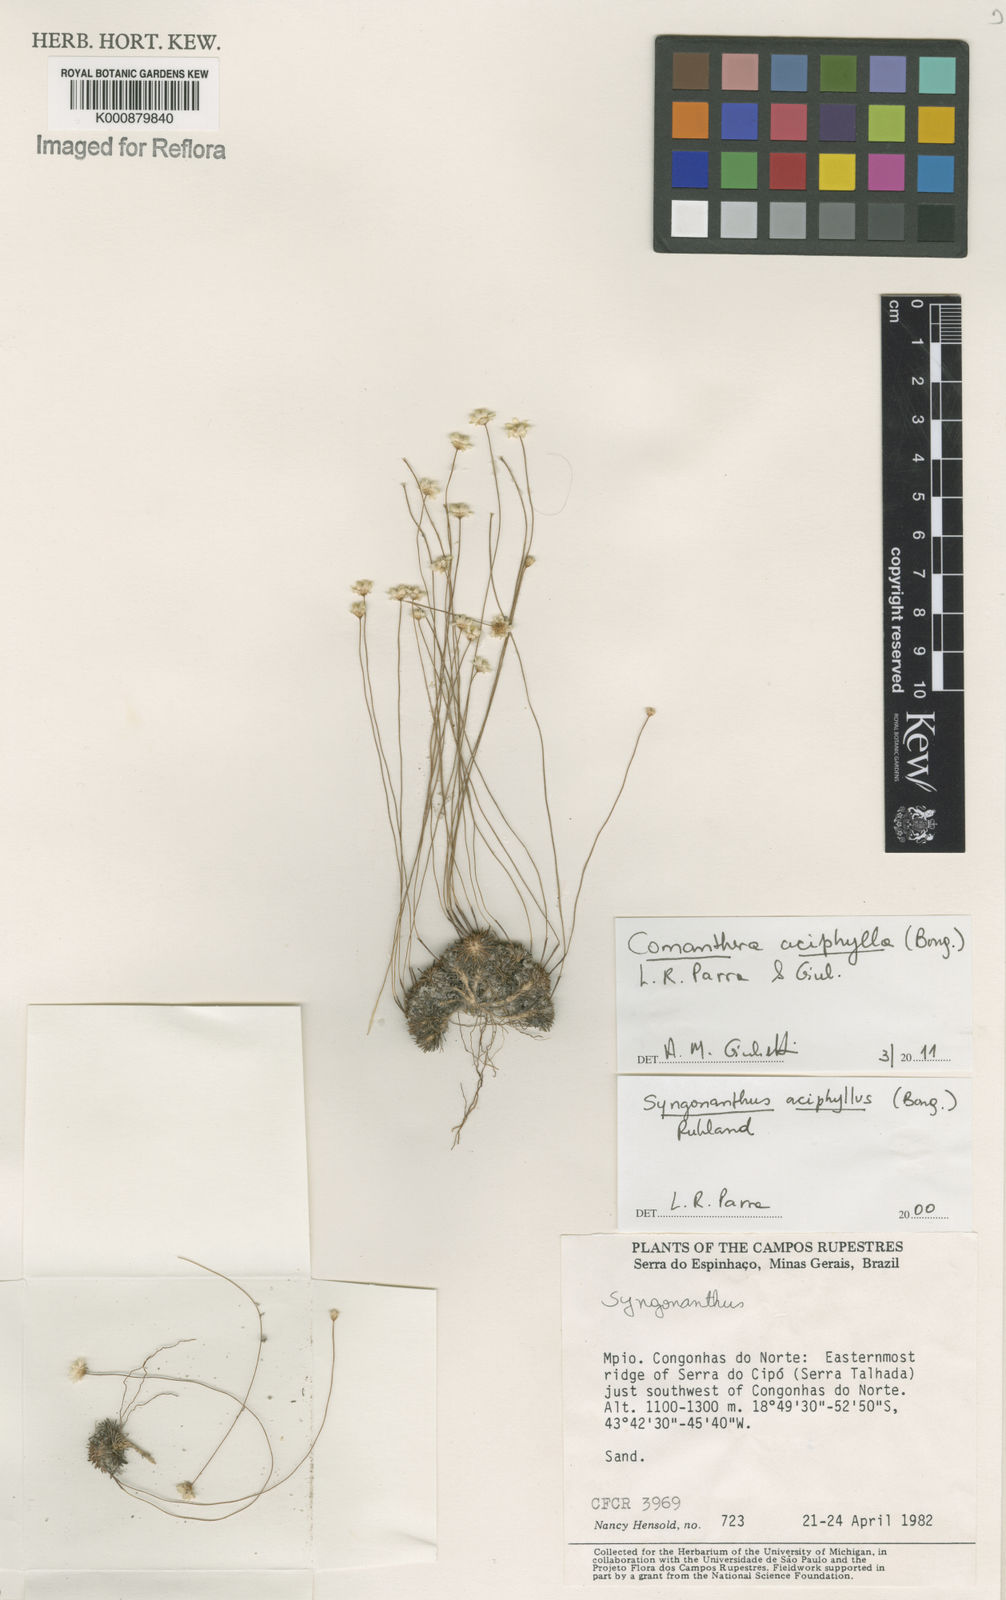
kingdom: Plantae
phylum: Tracheophyta
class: Liliopsida
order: Poales
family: Eriocaulaceae
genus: Comanthera
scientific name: Comanthera aciphylla
